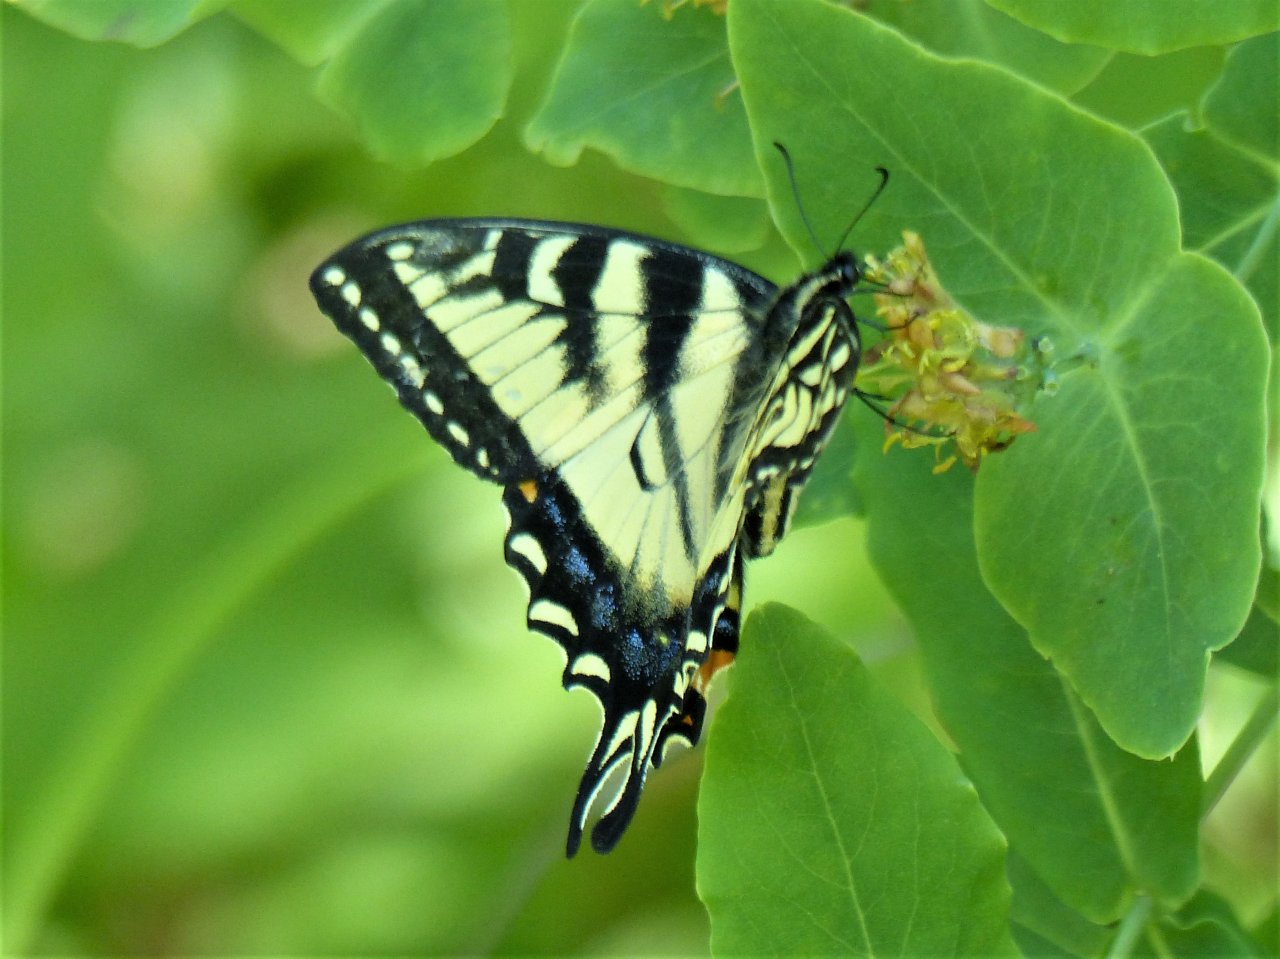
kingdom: Animalia
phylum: Arthropoda
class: Insecta
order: Lepidoptera
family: Papilionidae
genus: Pterourus
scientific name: Pterourus canadensis
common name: Canadian Tiger Swallowtail
